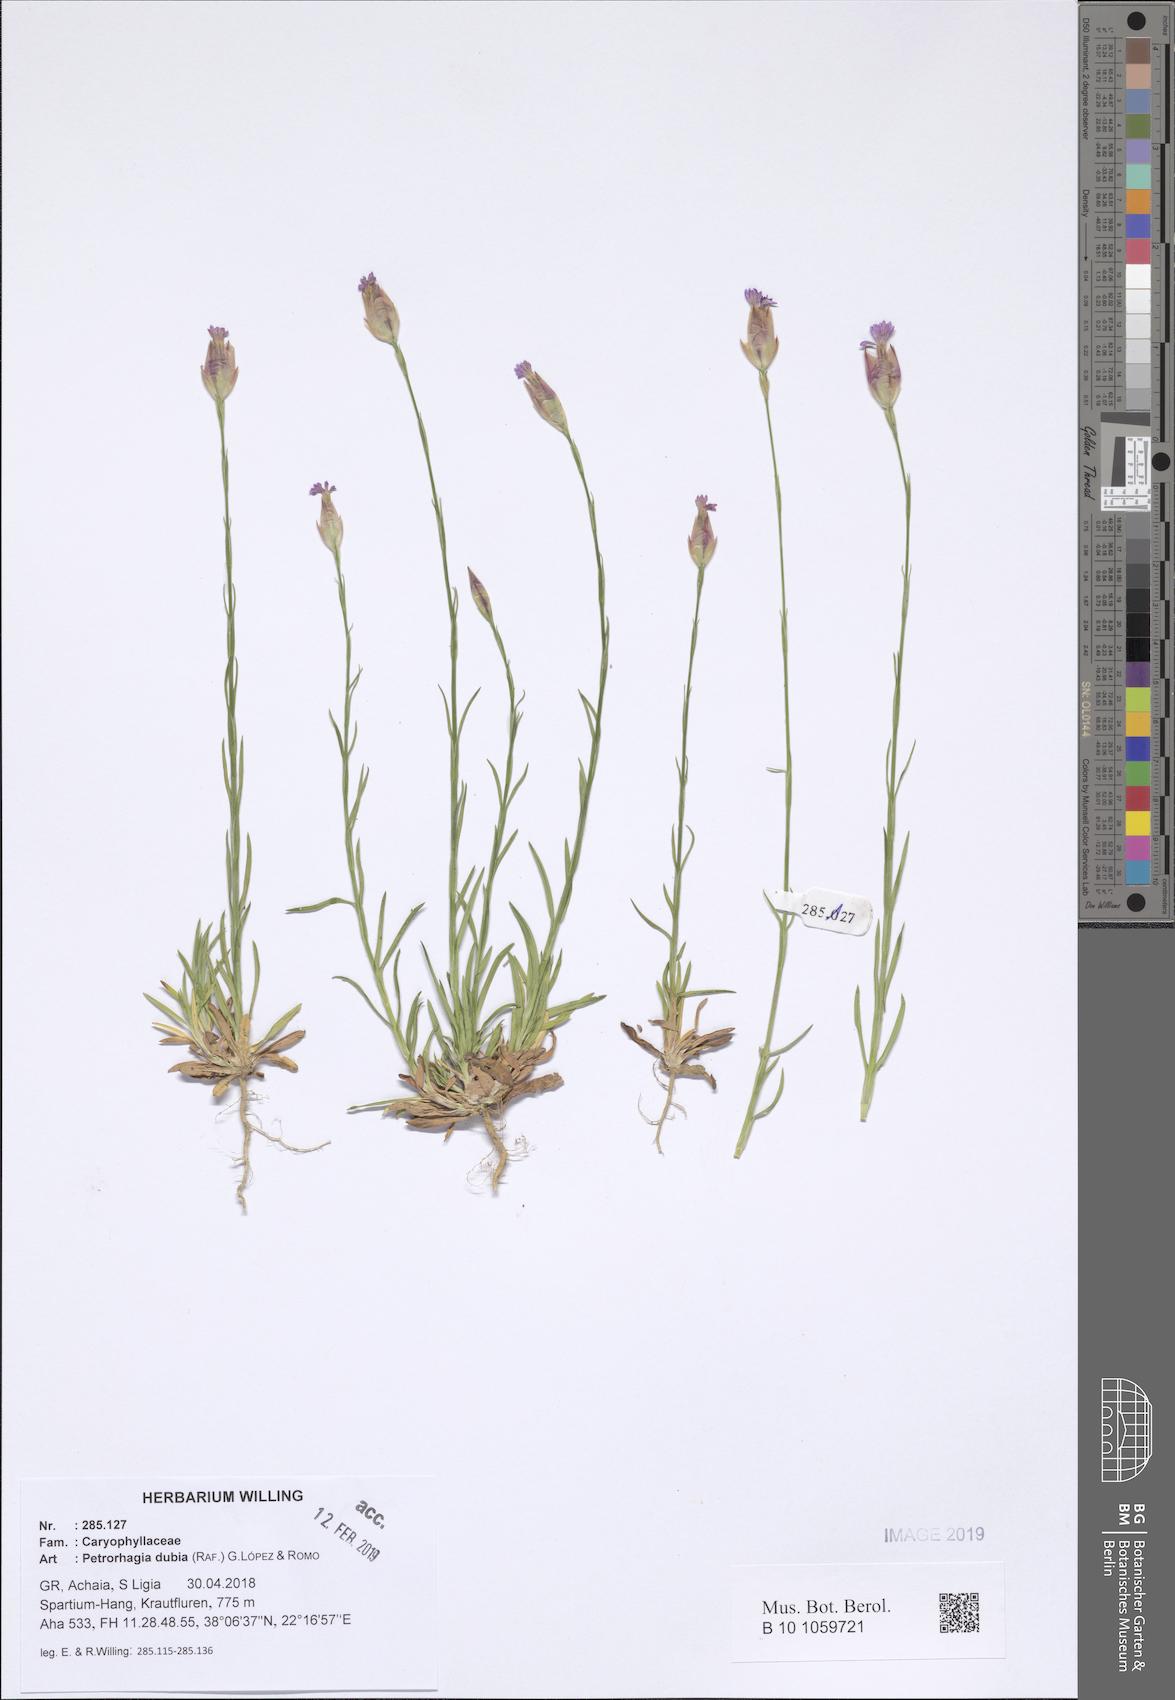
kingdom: Plantae
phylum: Tracheophyta
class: Magnoliopsida
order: Caryophyllales
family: Caryophyllaceae
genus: Petrorhagia
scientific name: Petrorhagia dubia
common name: Hairypink
